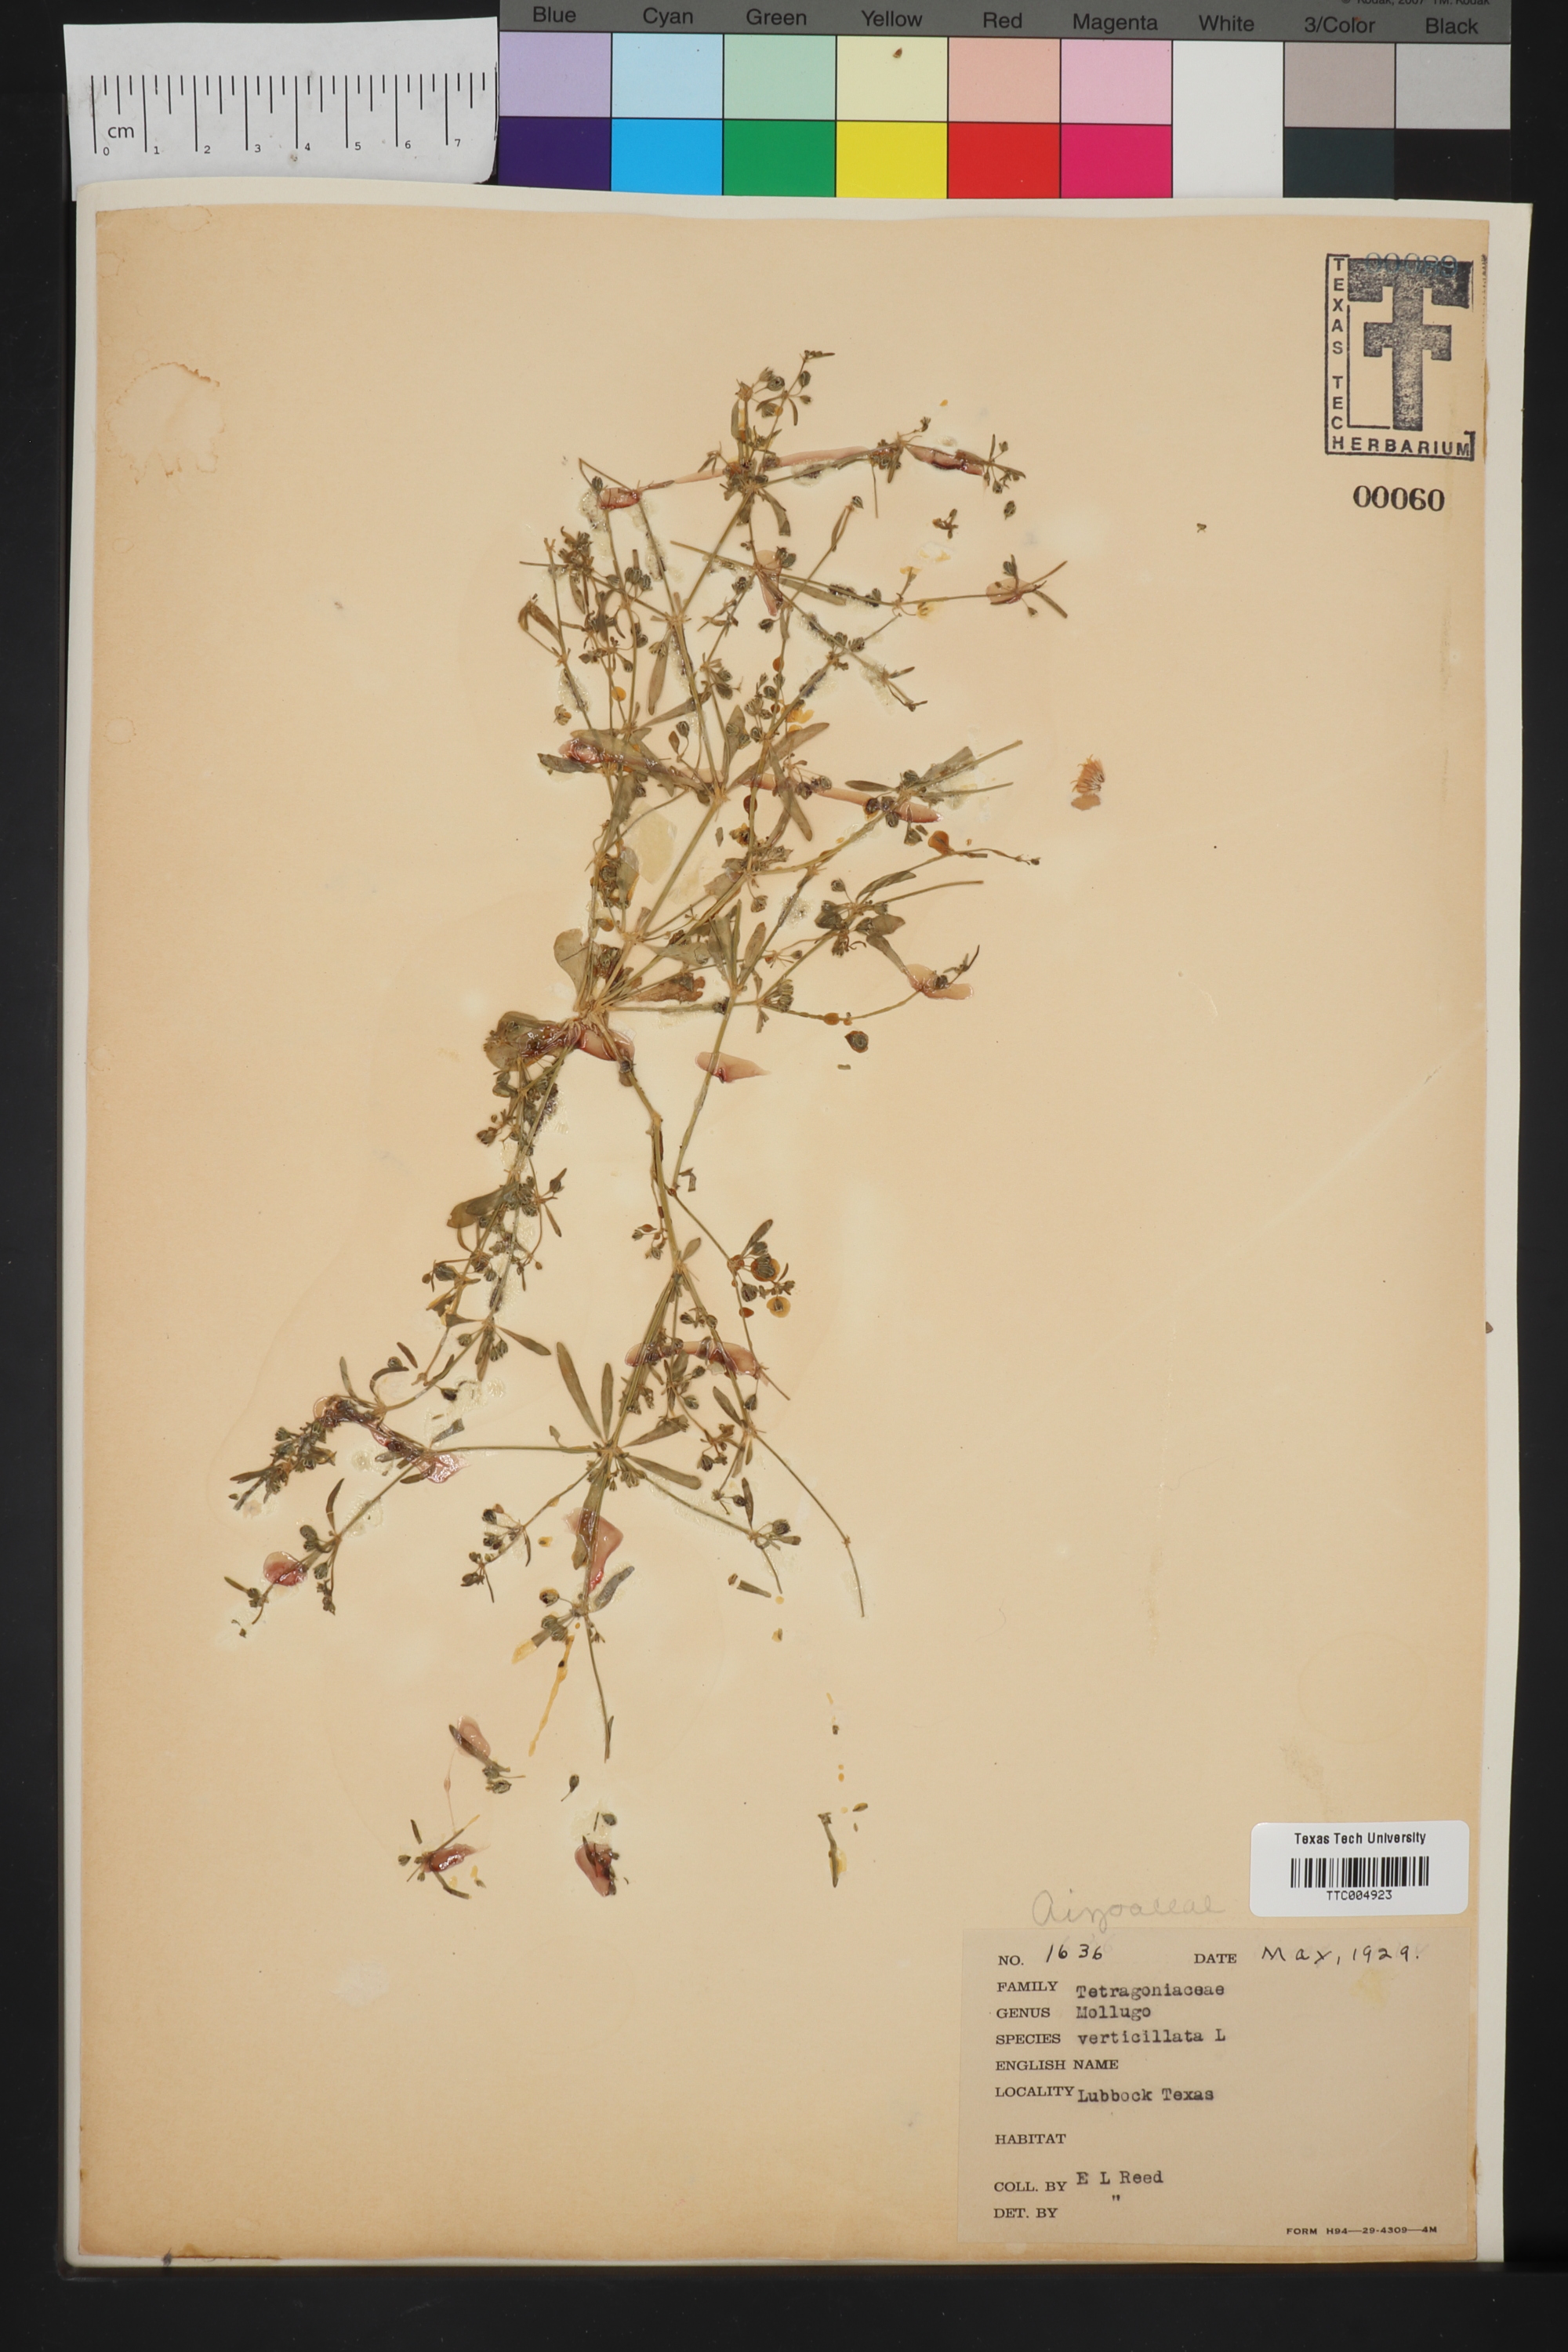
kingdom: Plantae
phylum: Tracheophyta
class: Magnoliopsida
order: Caryophyllales
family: Molluginaceae
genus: Mollugo
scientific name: Mollugo verticillata
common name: Green carpetweed
